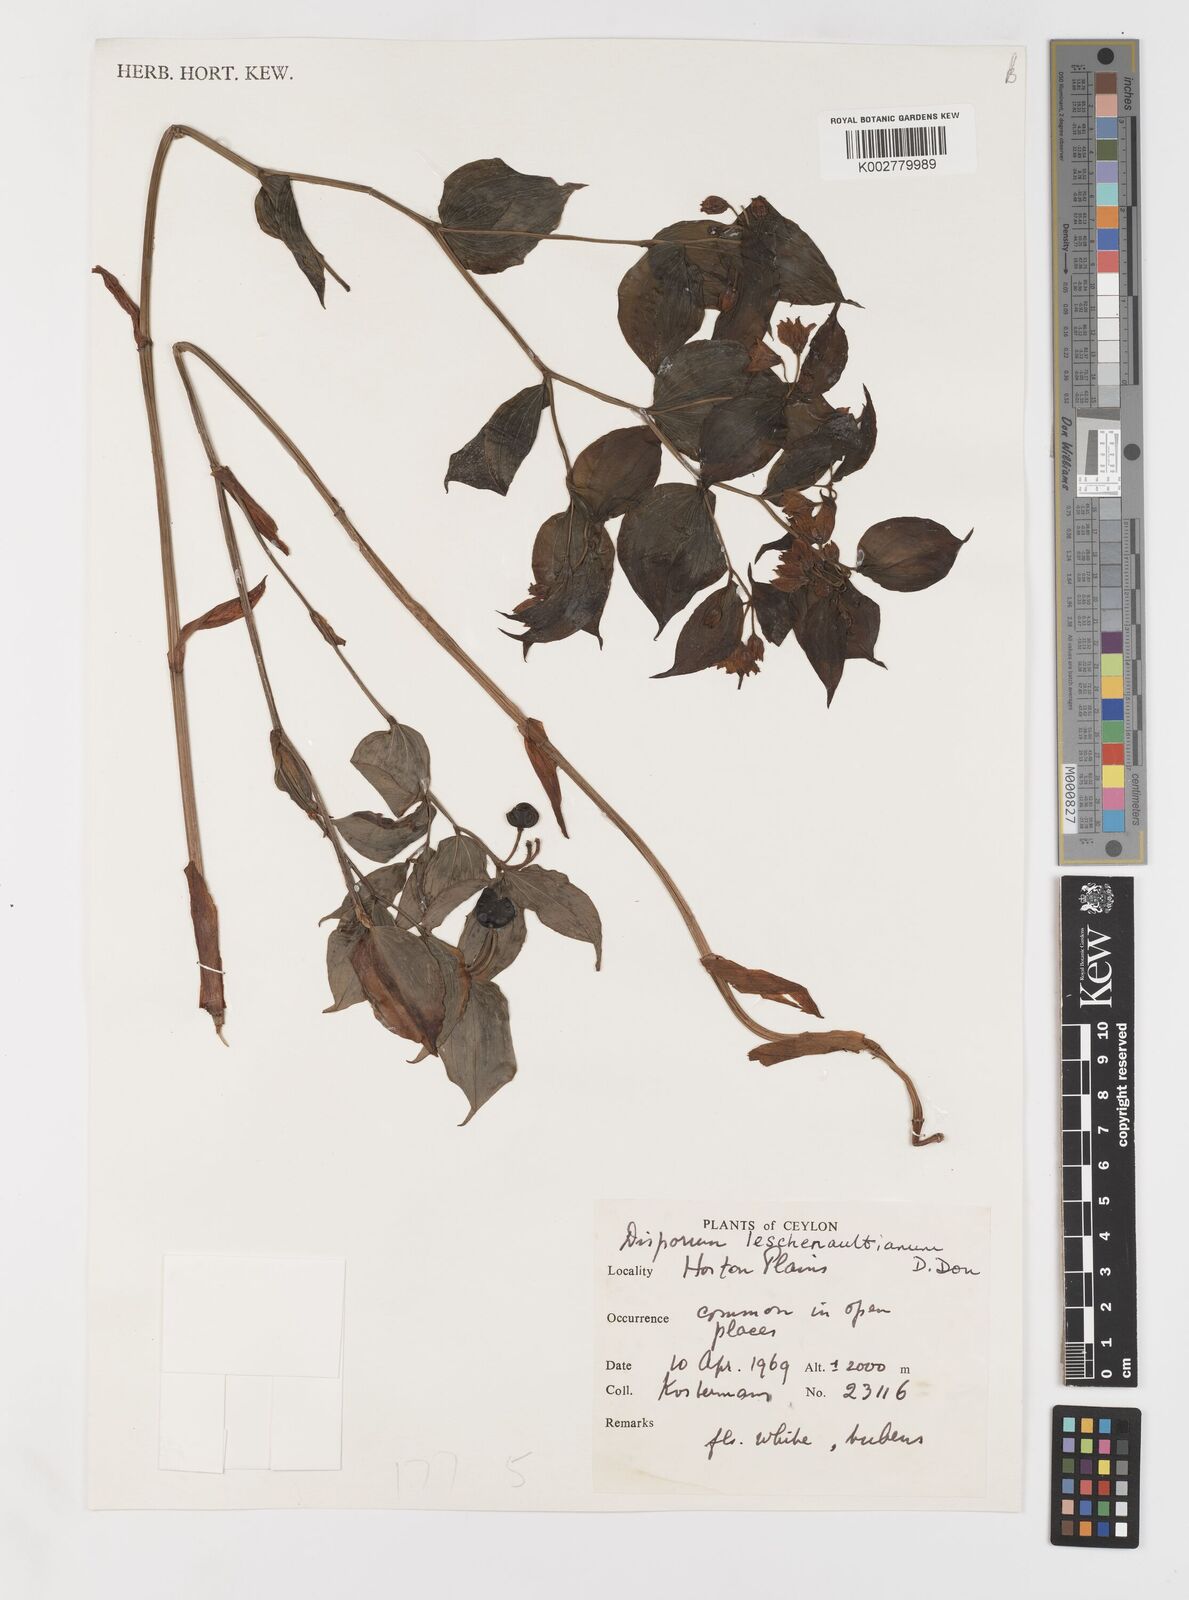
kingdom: Plantae
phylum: Tracheophyta
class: Liliopsida
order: Liliales
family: Colchicaceae
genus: Disporum
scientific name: Disporum cantoniense
